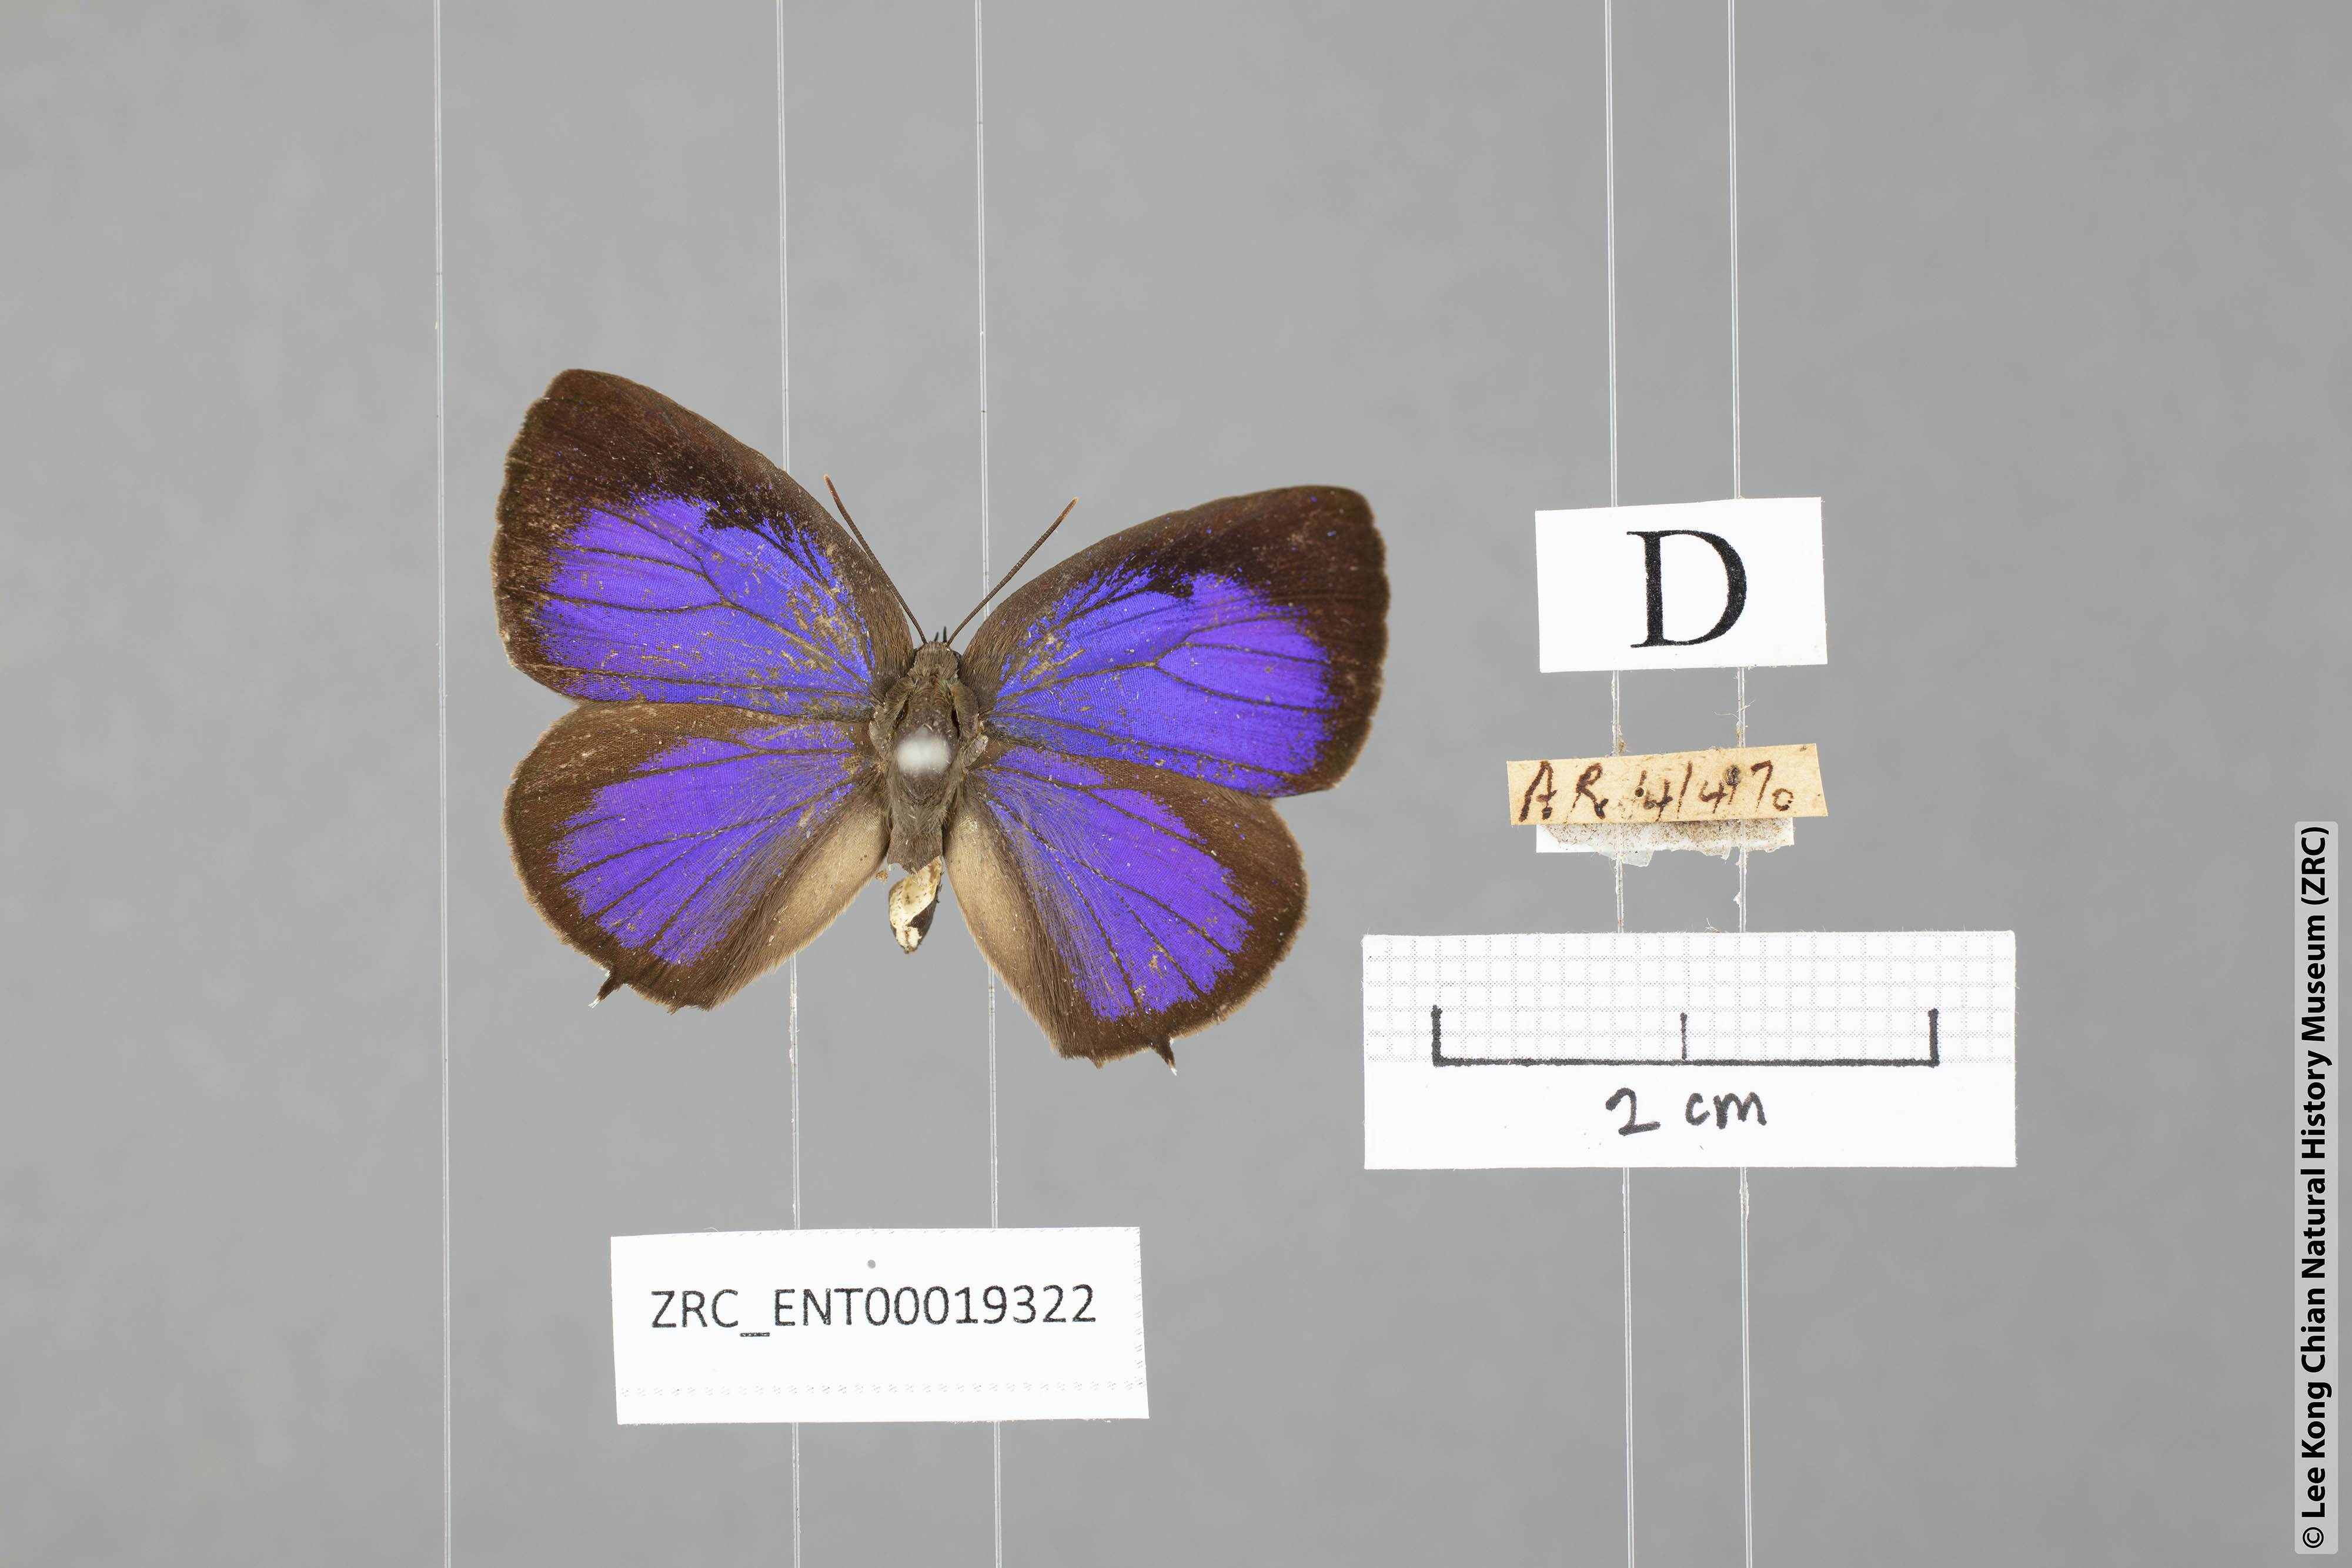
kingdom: Animalia
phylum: Arthropoda
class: Insecta
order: Lepidoptera
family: Lycaenidae
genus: Arhopala
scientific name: Arhopala buddha
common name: Buddha oakblue
